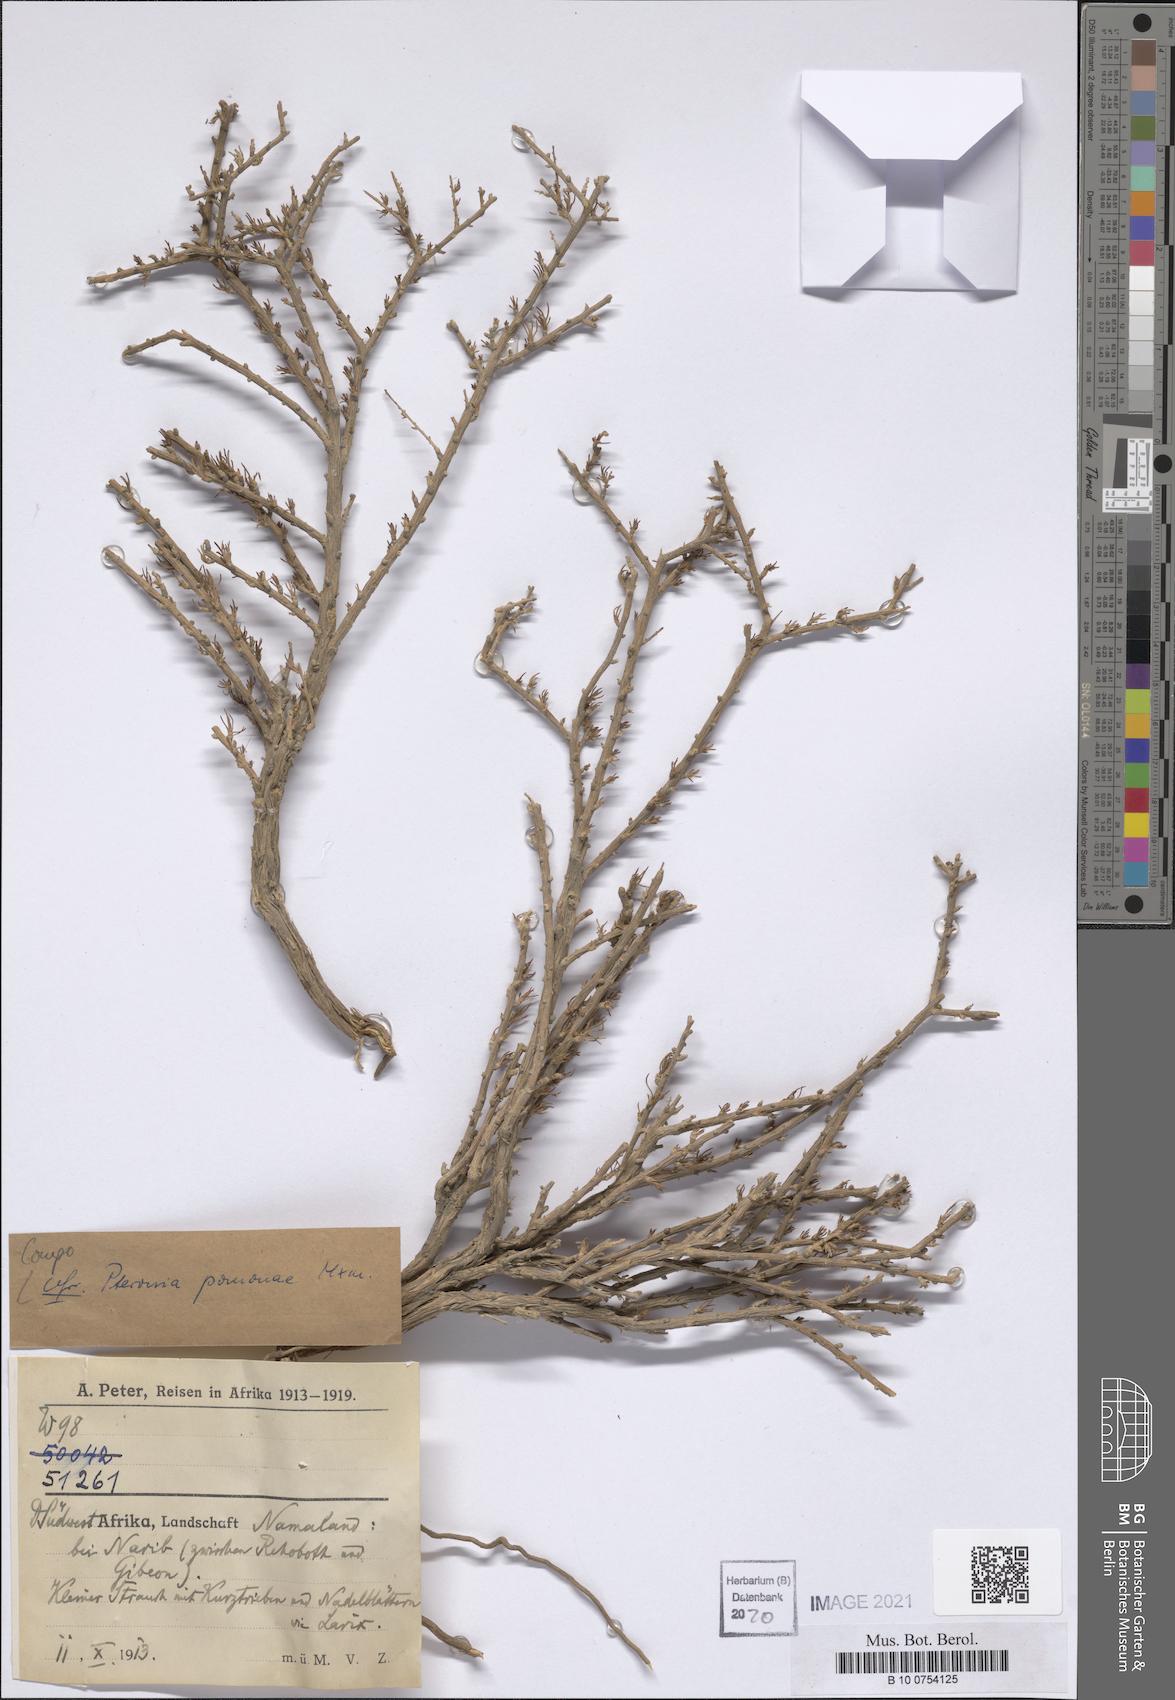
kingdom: Plantae
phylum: Tracheophyta
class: Magnoliopsida
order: Asterales
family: Asteraceae
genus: Pteronia
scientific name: Pteronia pomonae
